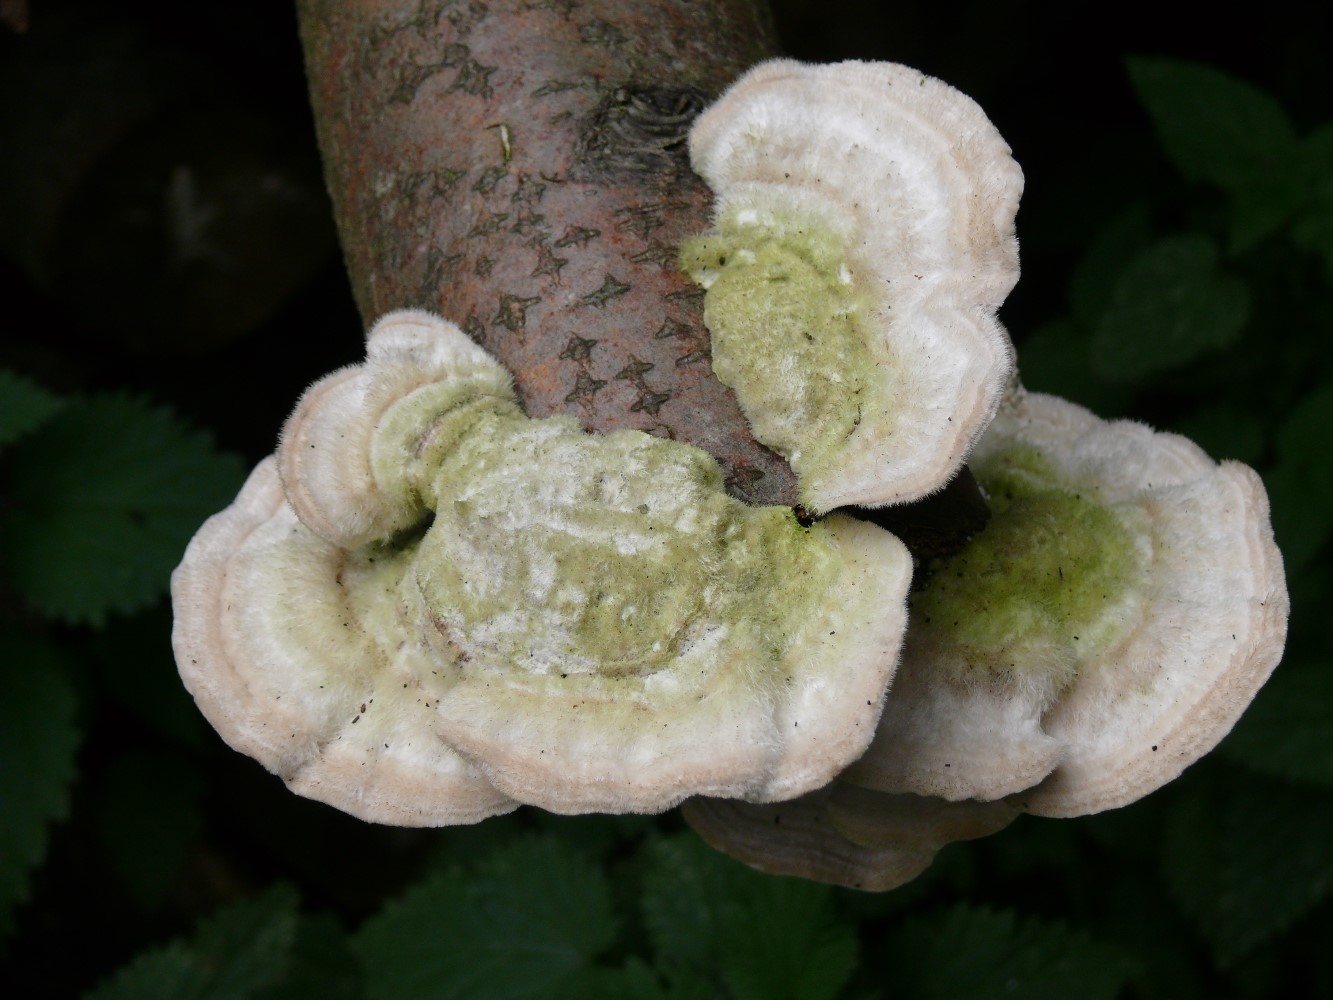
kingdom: Fungi
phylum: Basidiomycota
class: Agaricomycetes
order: Polyporales
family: Polyporaceae
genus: Trametes
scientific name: Trametes hirsuta
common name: håret læderporesvamp
